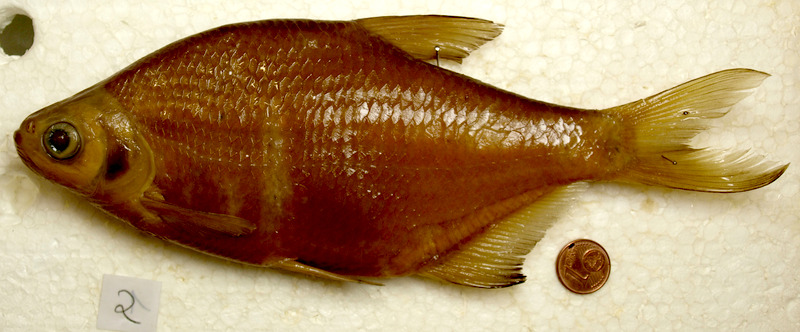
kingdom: Animalia
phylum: Chordata
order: Cypriniformes
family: Cyprinidae
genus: Abramis
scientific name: Abramis brama
